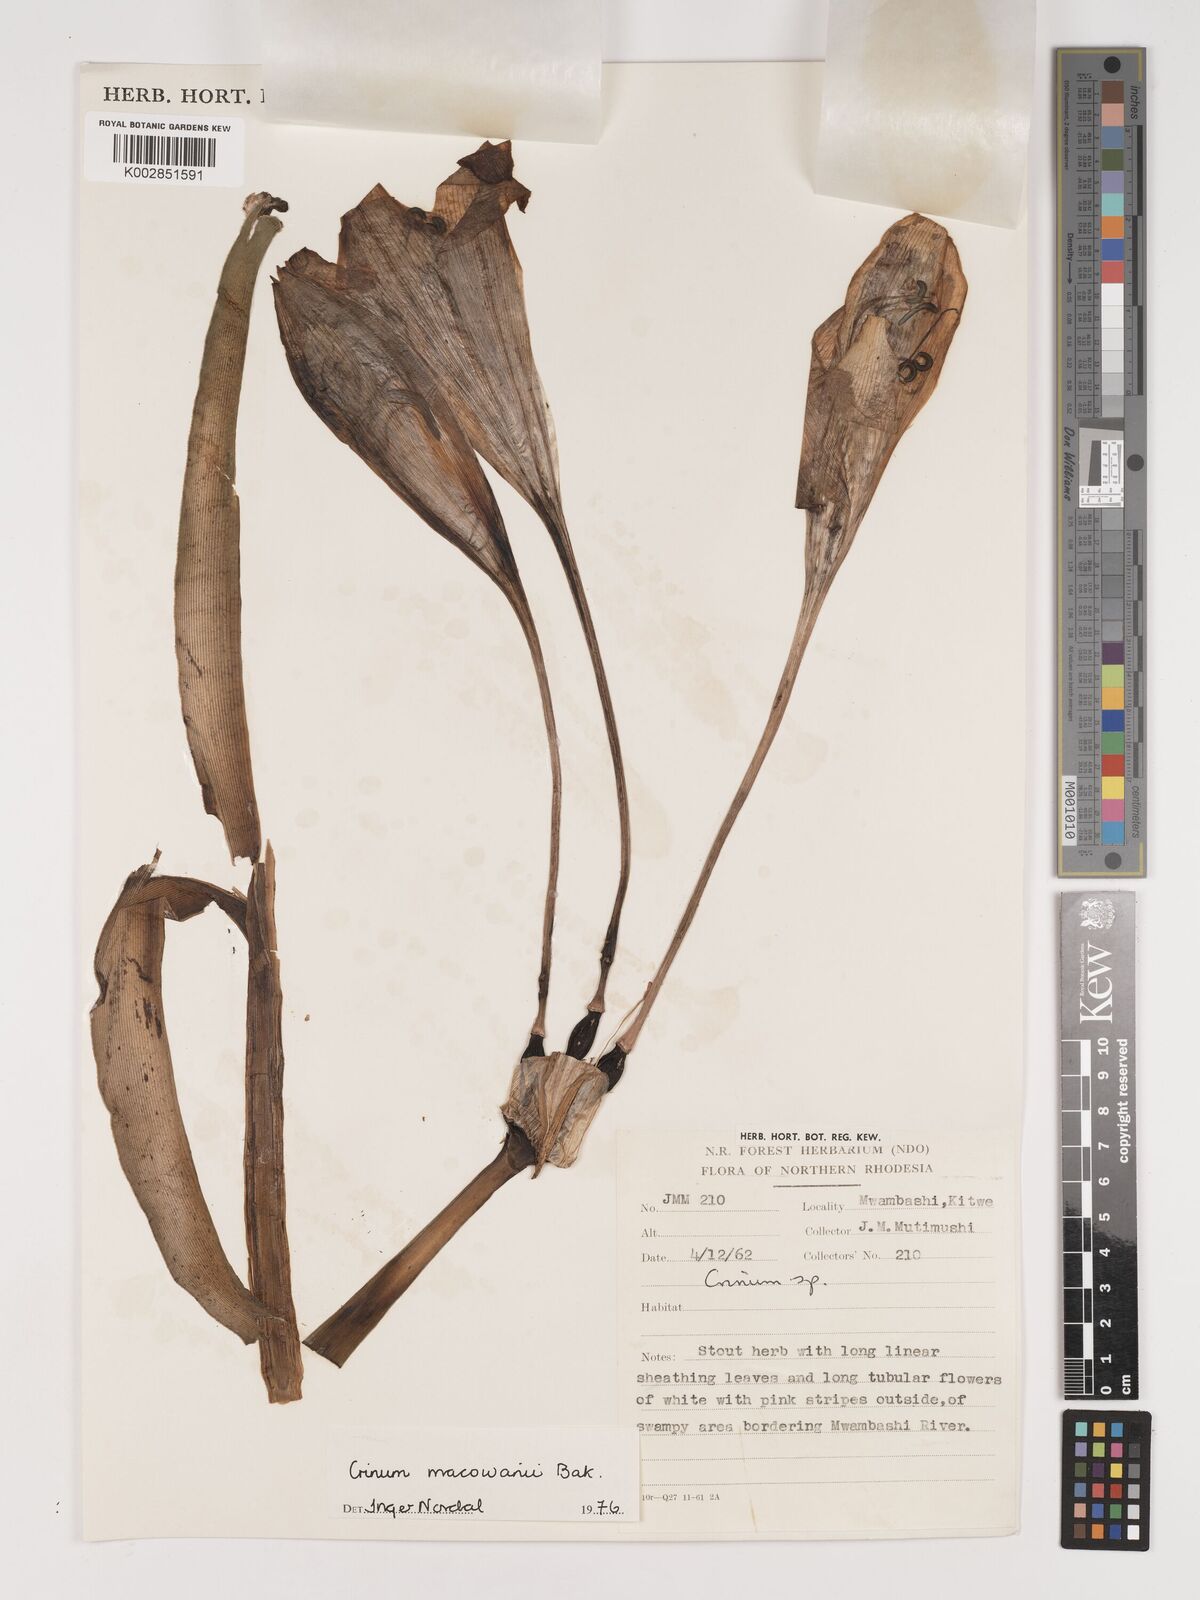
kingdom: Plantae
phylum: Tracheophyta
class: Liliopsida
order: Asparagales
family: Amaryllidaceae
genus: Crinum
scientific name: Crinum macowanii
